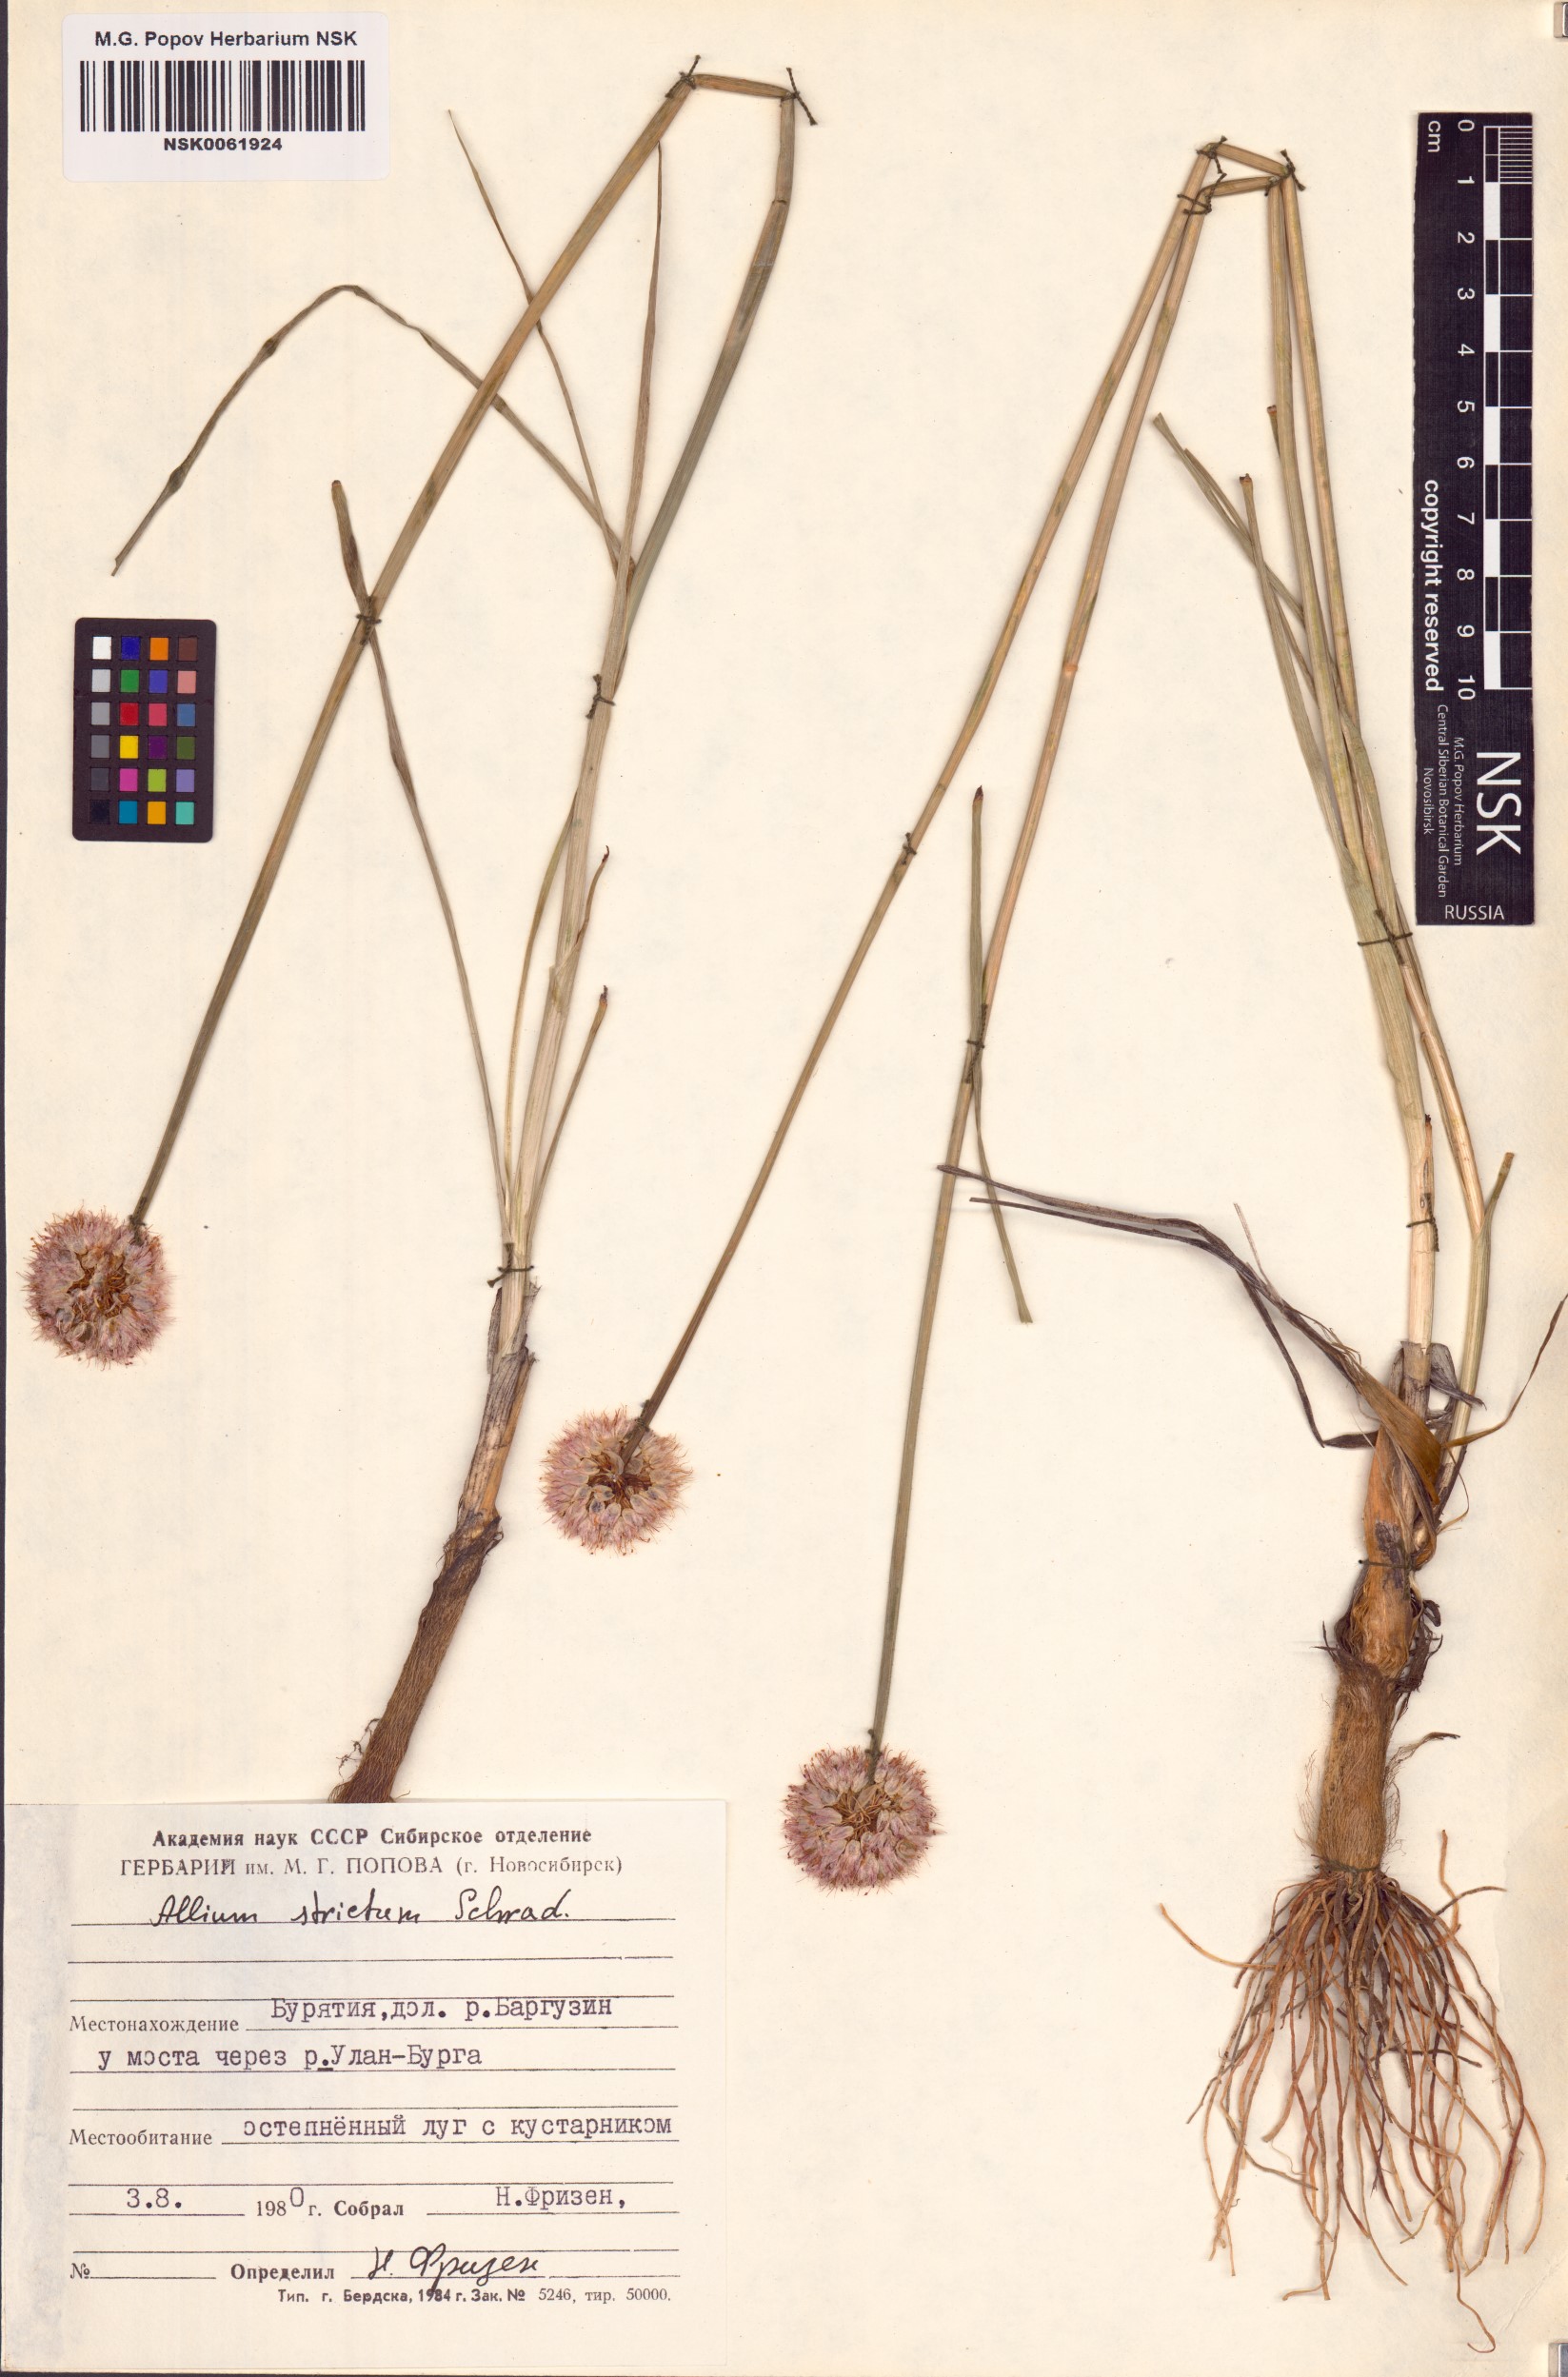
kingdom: Plantae
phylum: Tracheophyta
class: Liliopsida
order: Asparagales
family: Amaryllidaceae
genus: Allium
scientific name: Allium strictum
